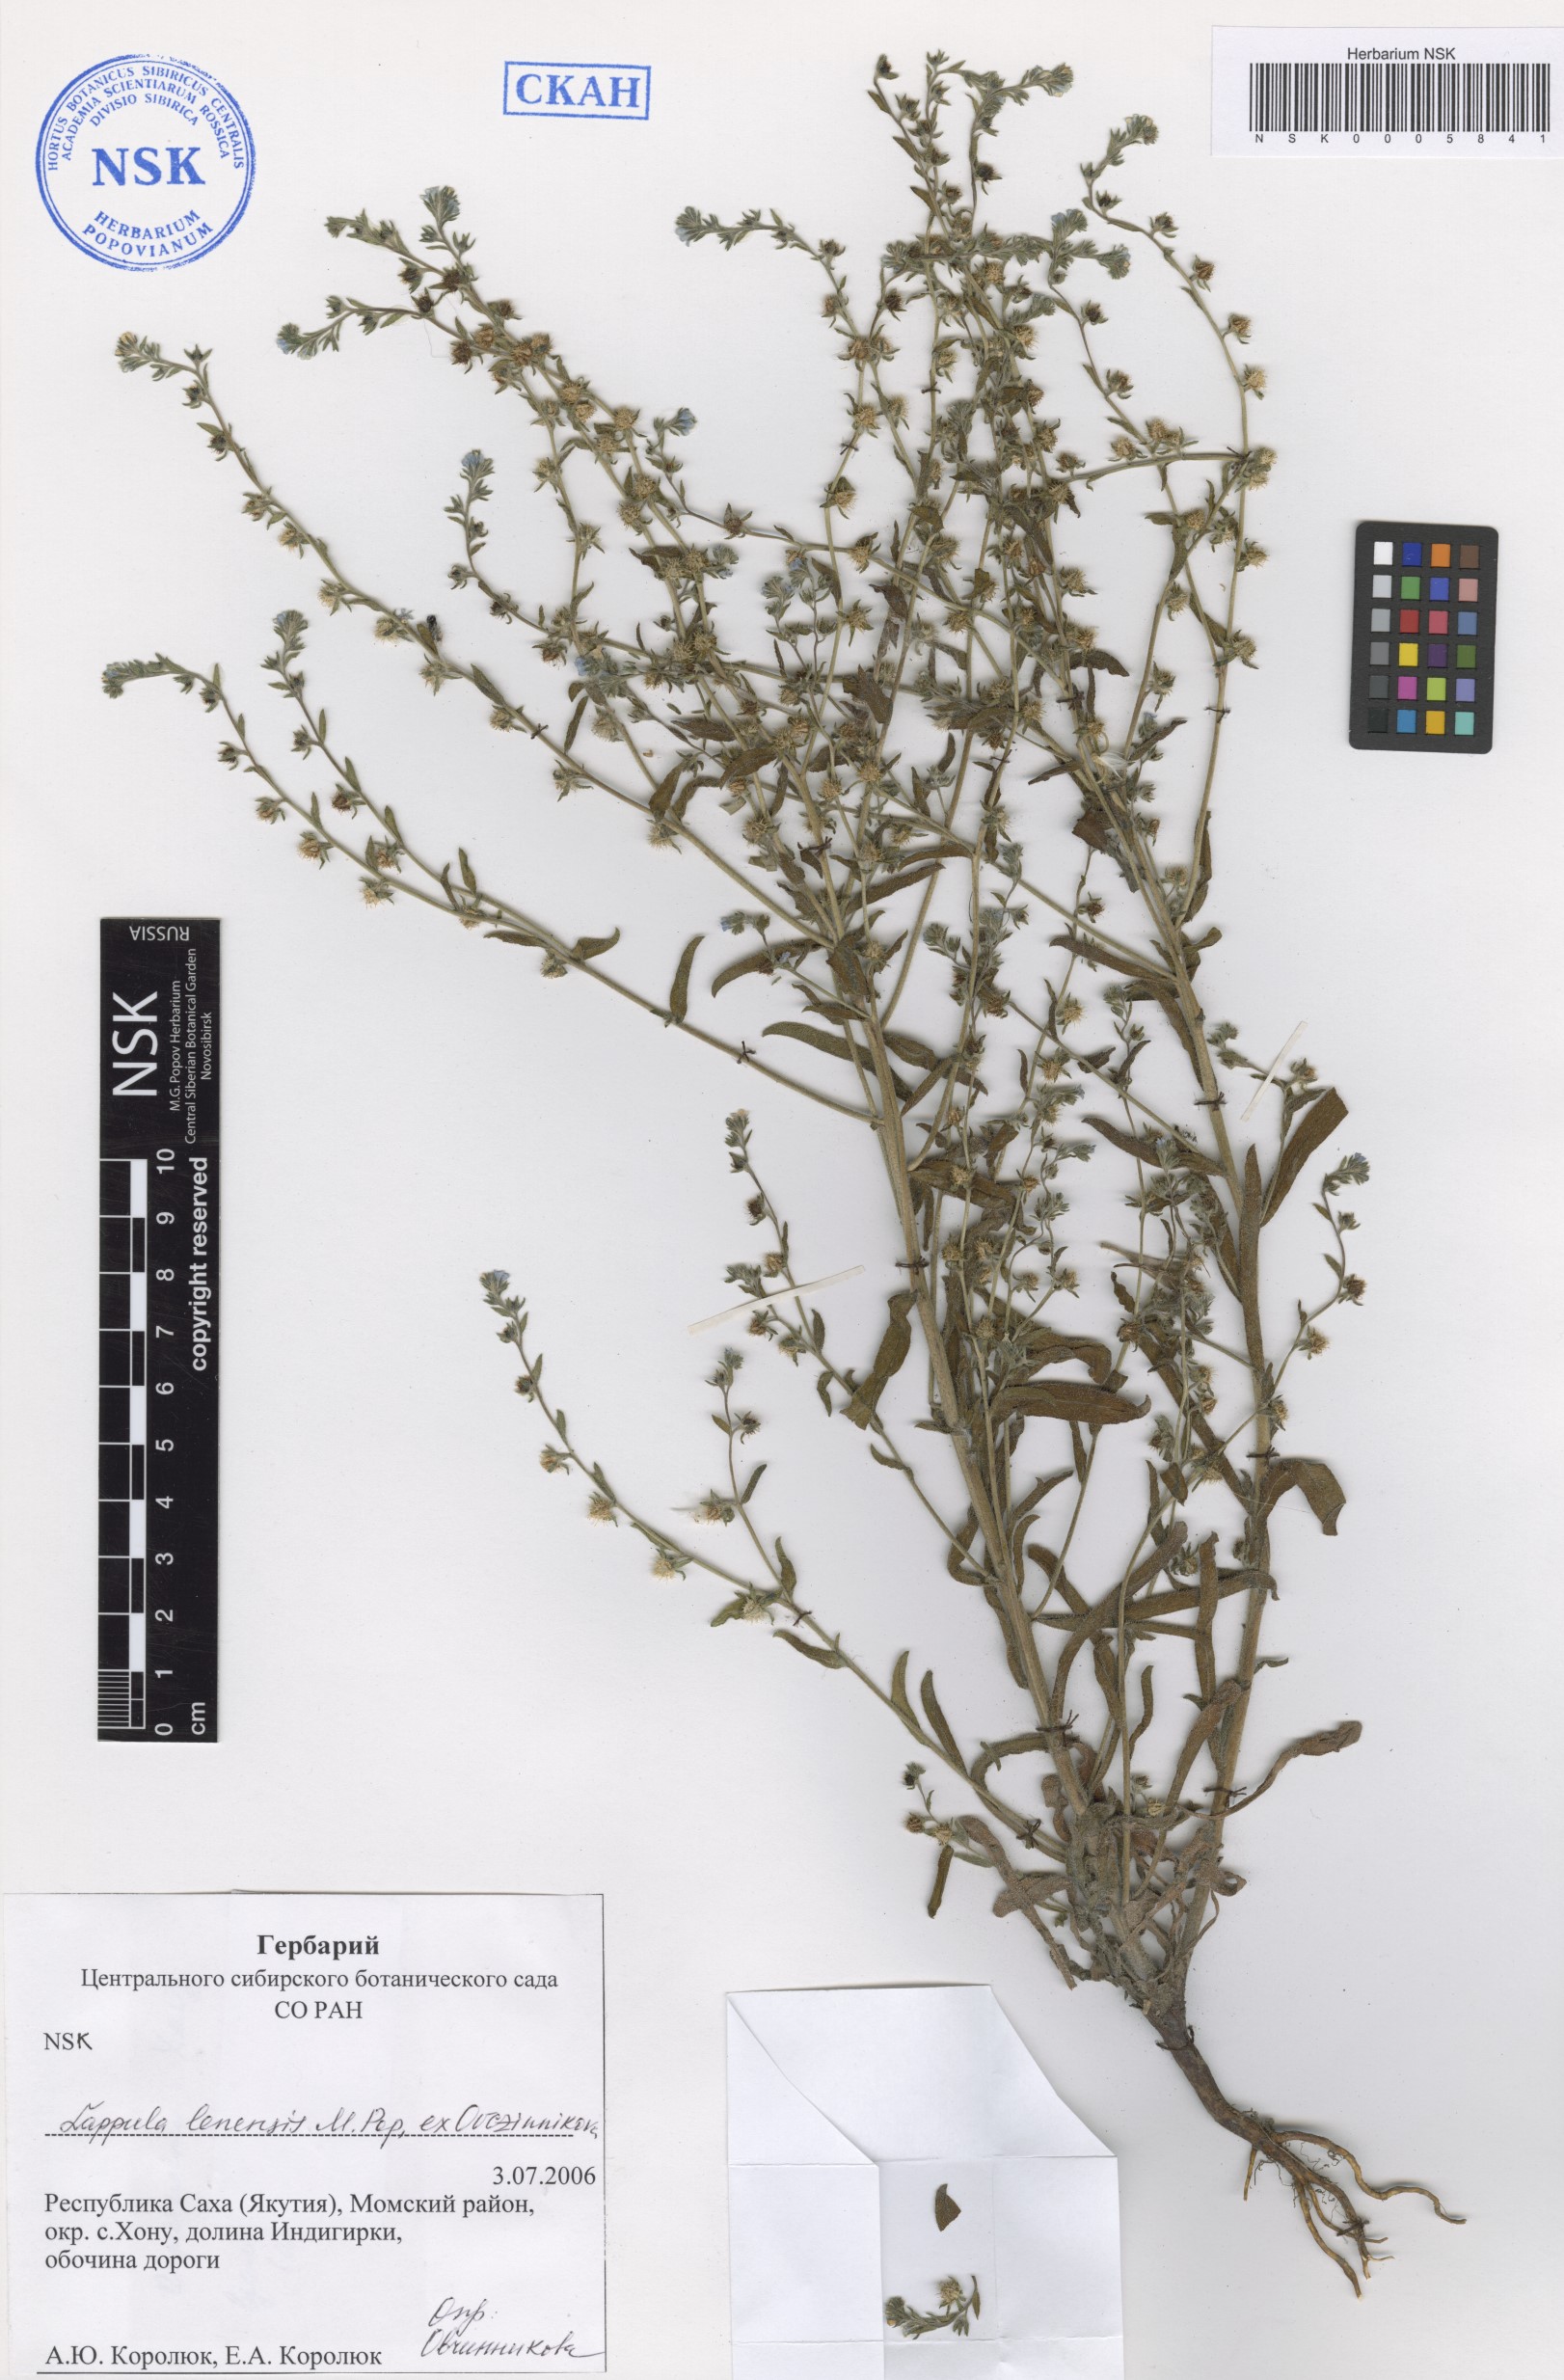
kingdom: Plantae
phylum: Tracheophyta
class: Magnoliopsida
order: Boraginales
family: Boraginaceae
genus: Lappula
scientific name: Lappula lenensis
